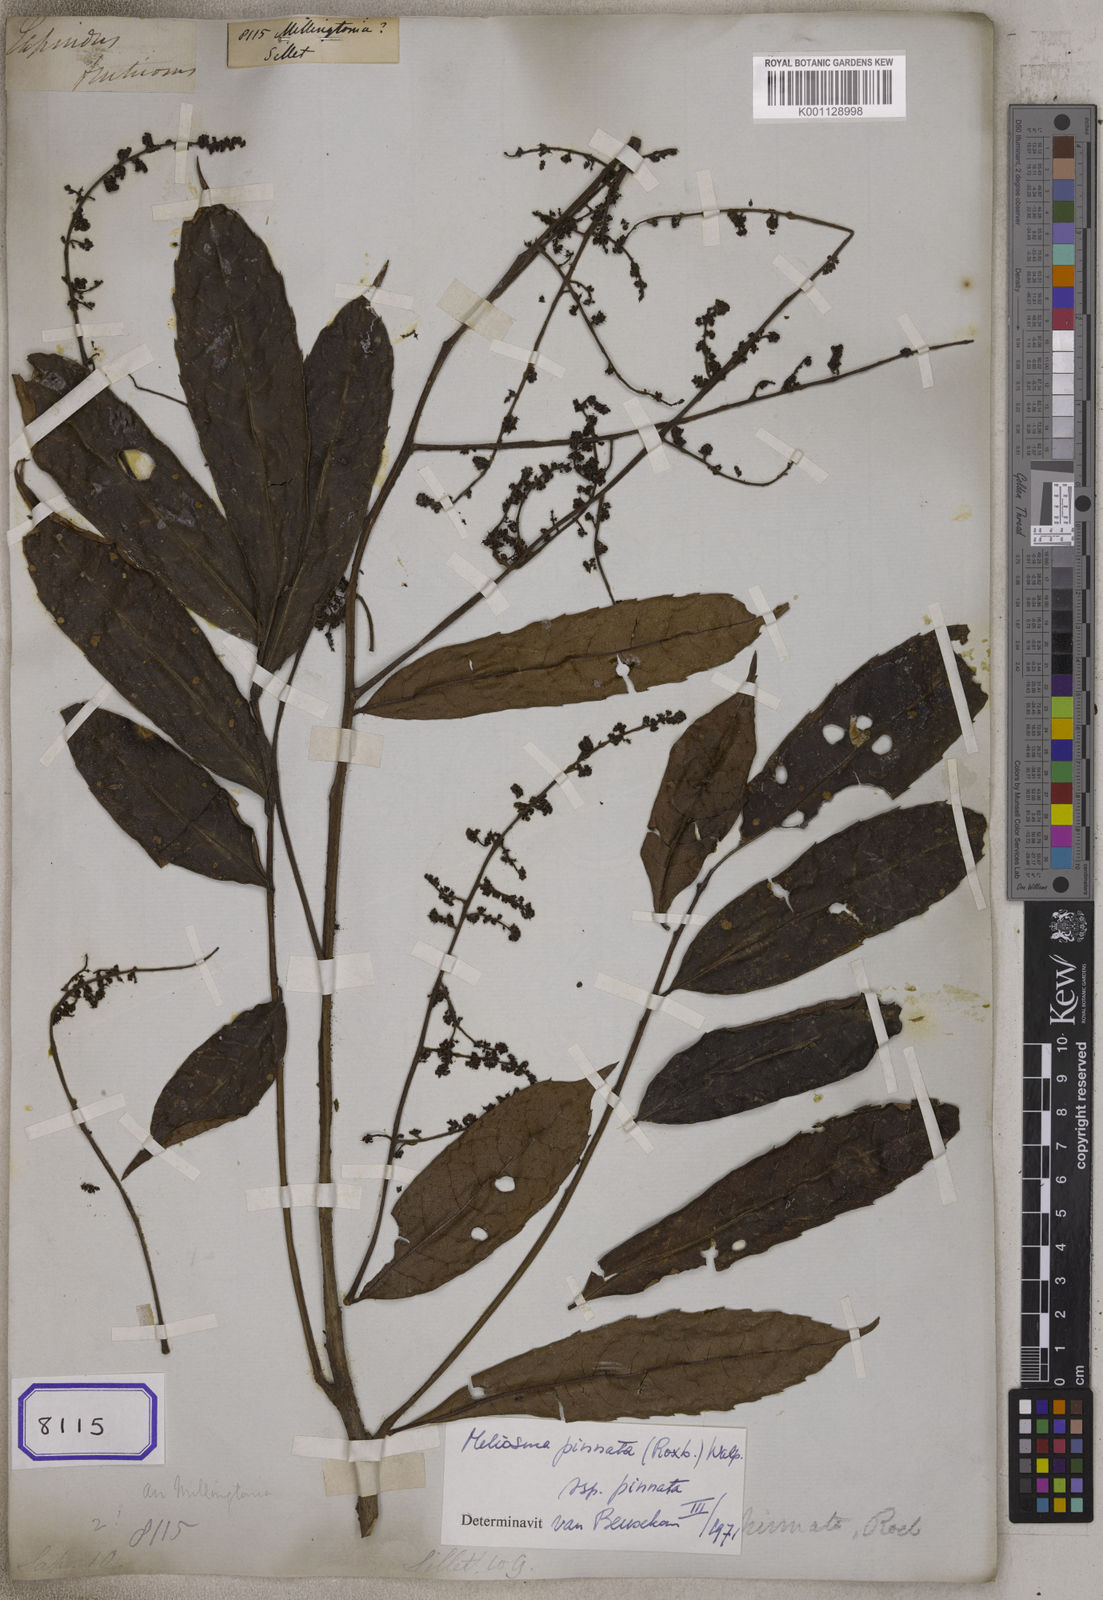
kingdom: Plantae
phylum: Tracheophyta
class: Magnoliopsida
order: Lamiales
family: Bignoniaceae
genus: Millingtonia
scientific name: Millingtonia
